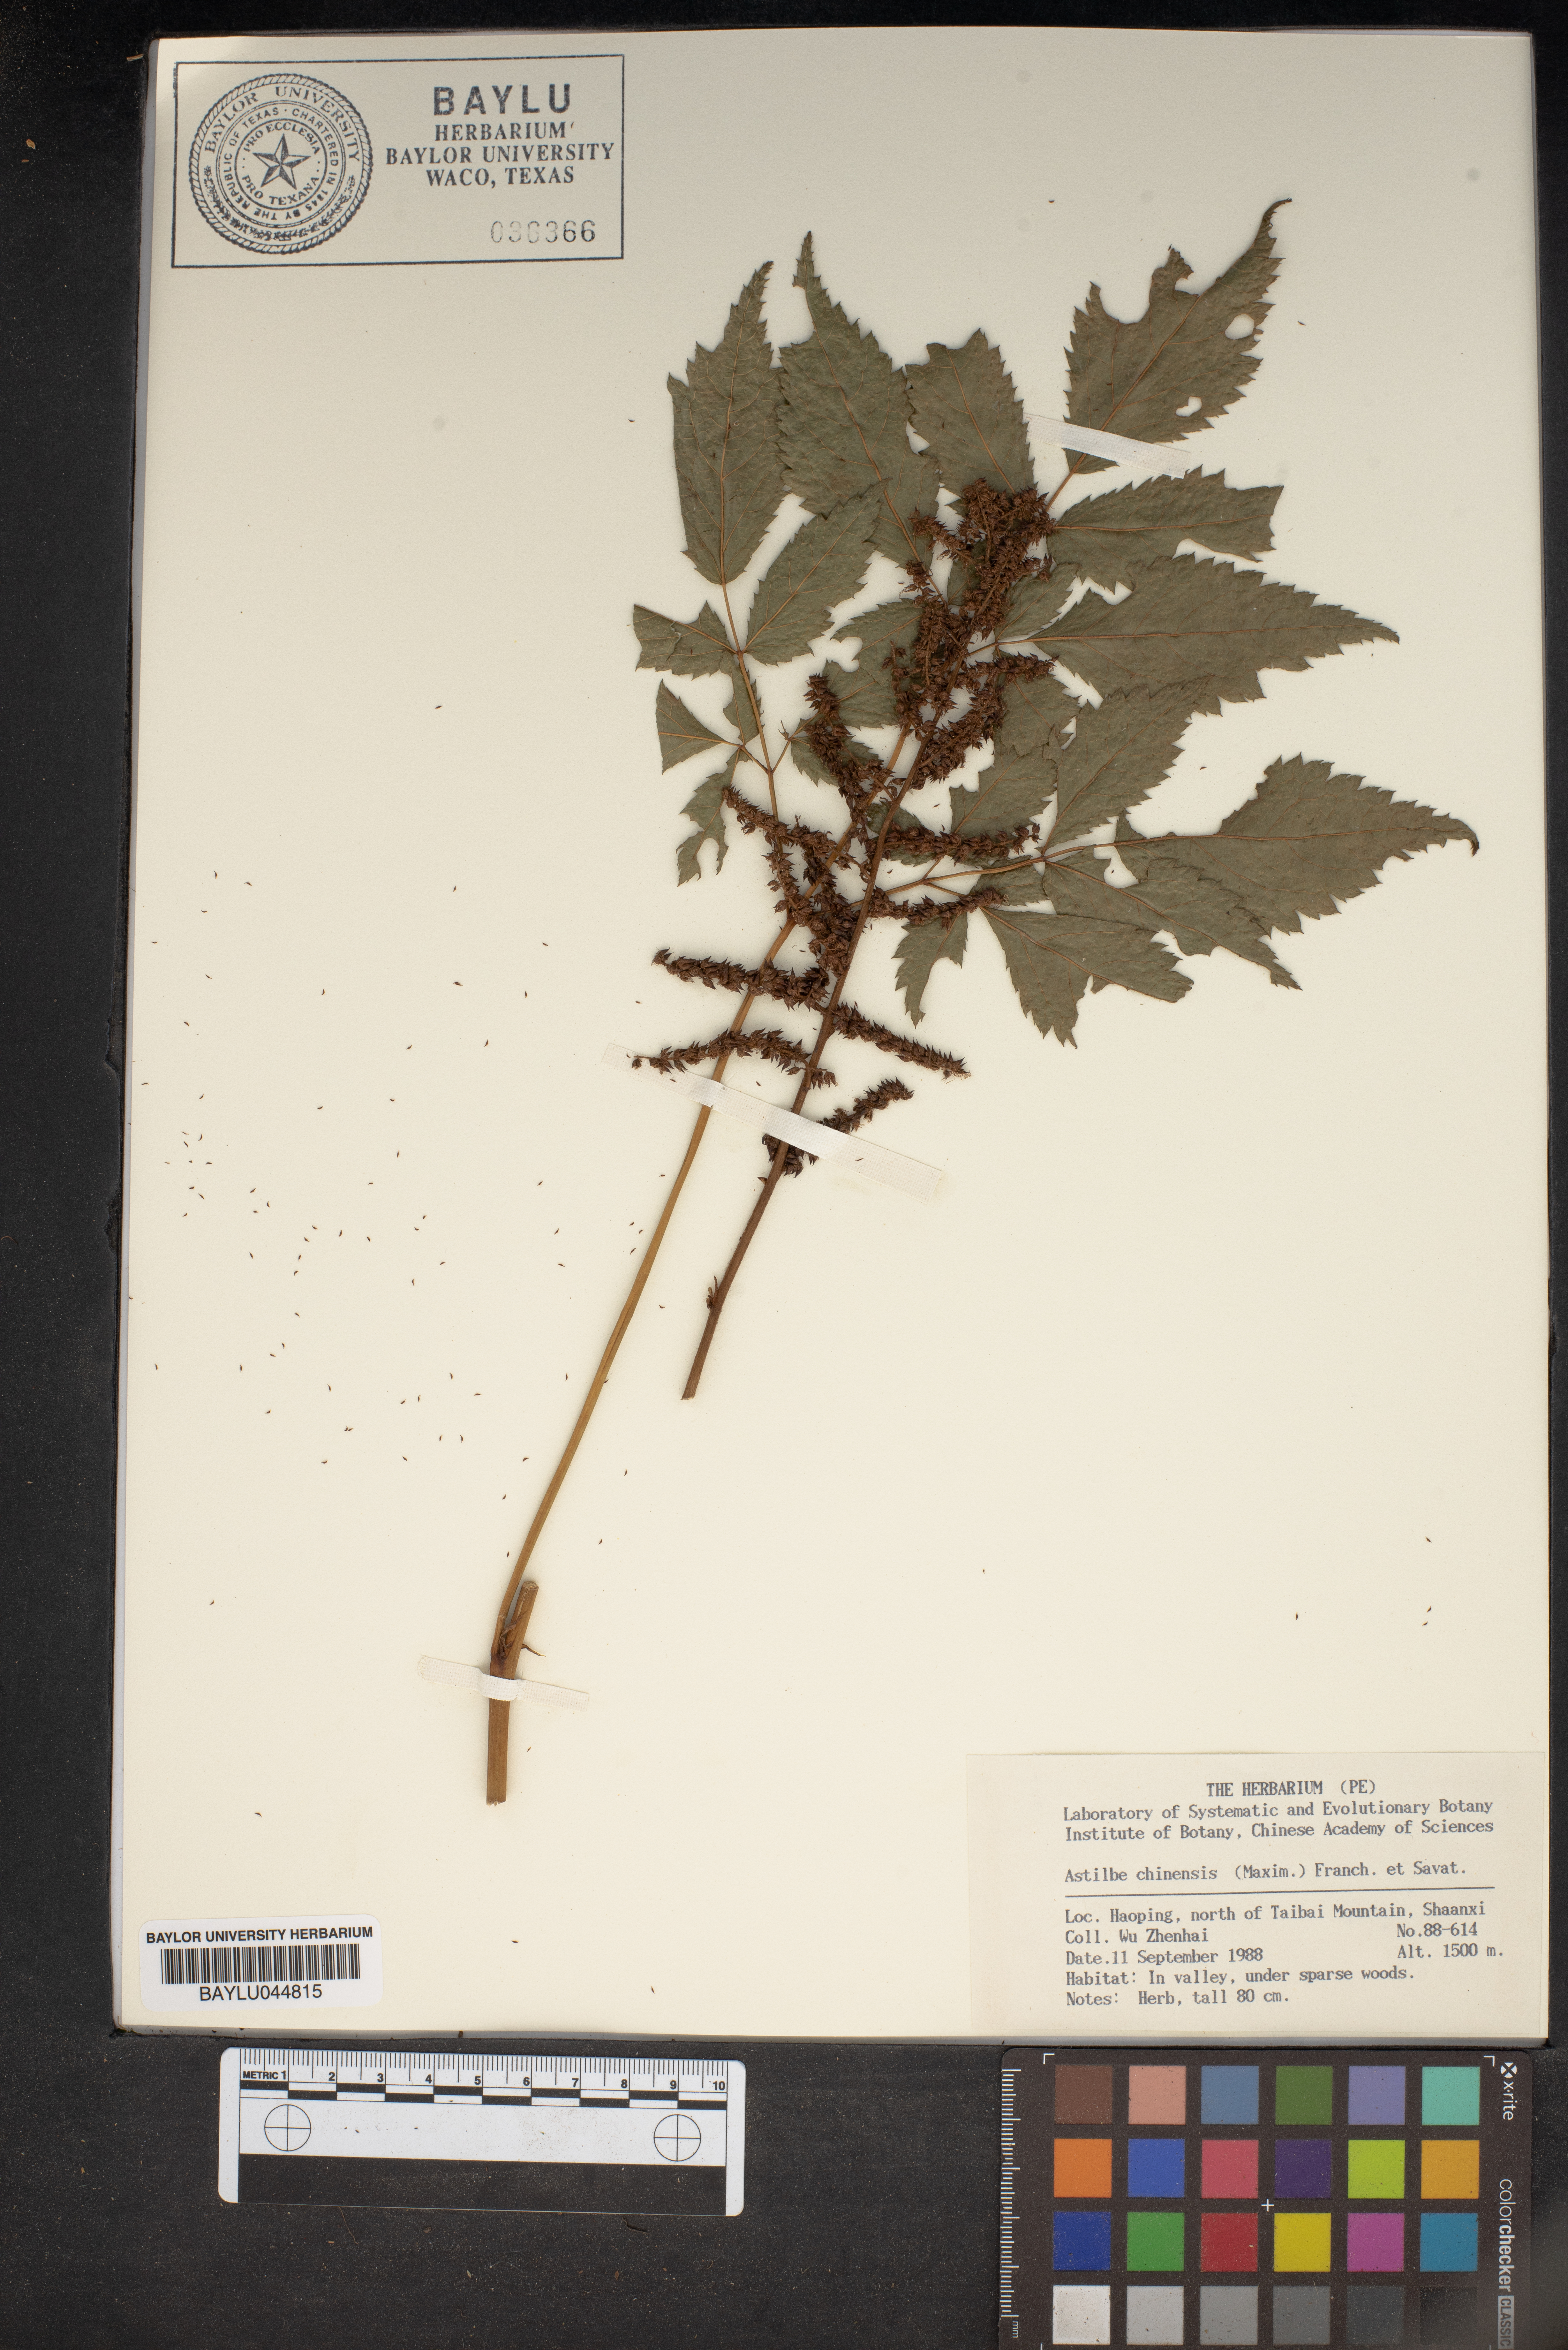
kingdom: Plantae
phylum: Tracheophyta
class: Magnoliopsida
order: Saxifragales
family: Saxifragaceae
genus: Astilbe
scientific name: Astilbe rubra
